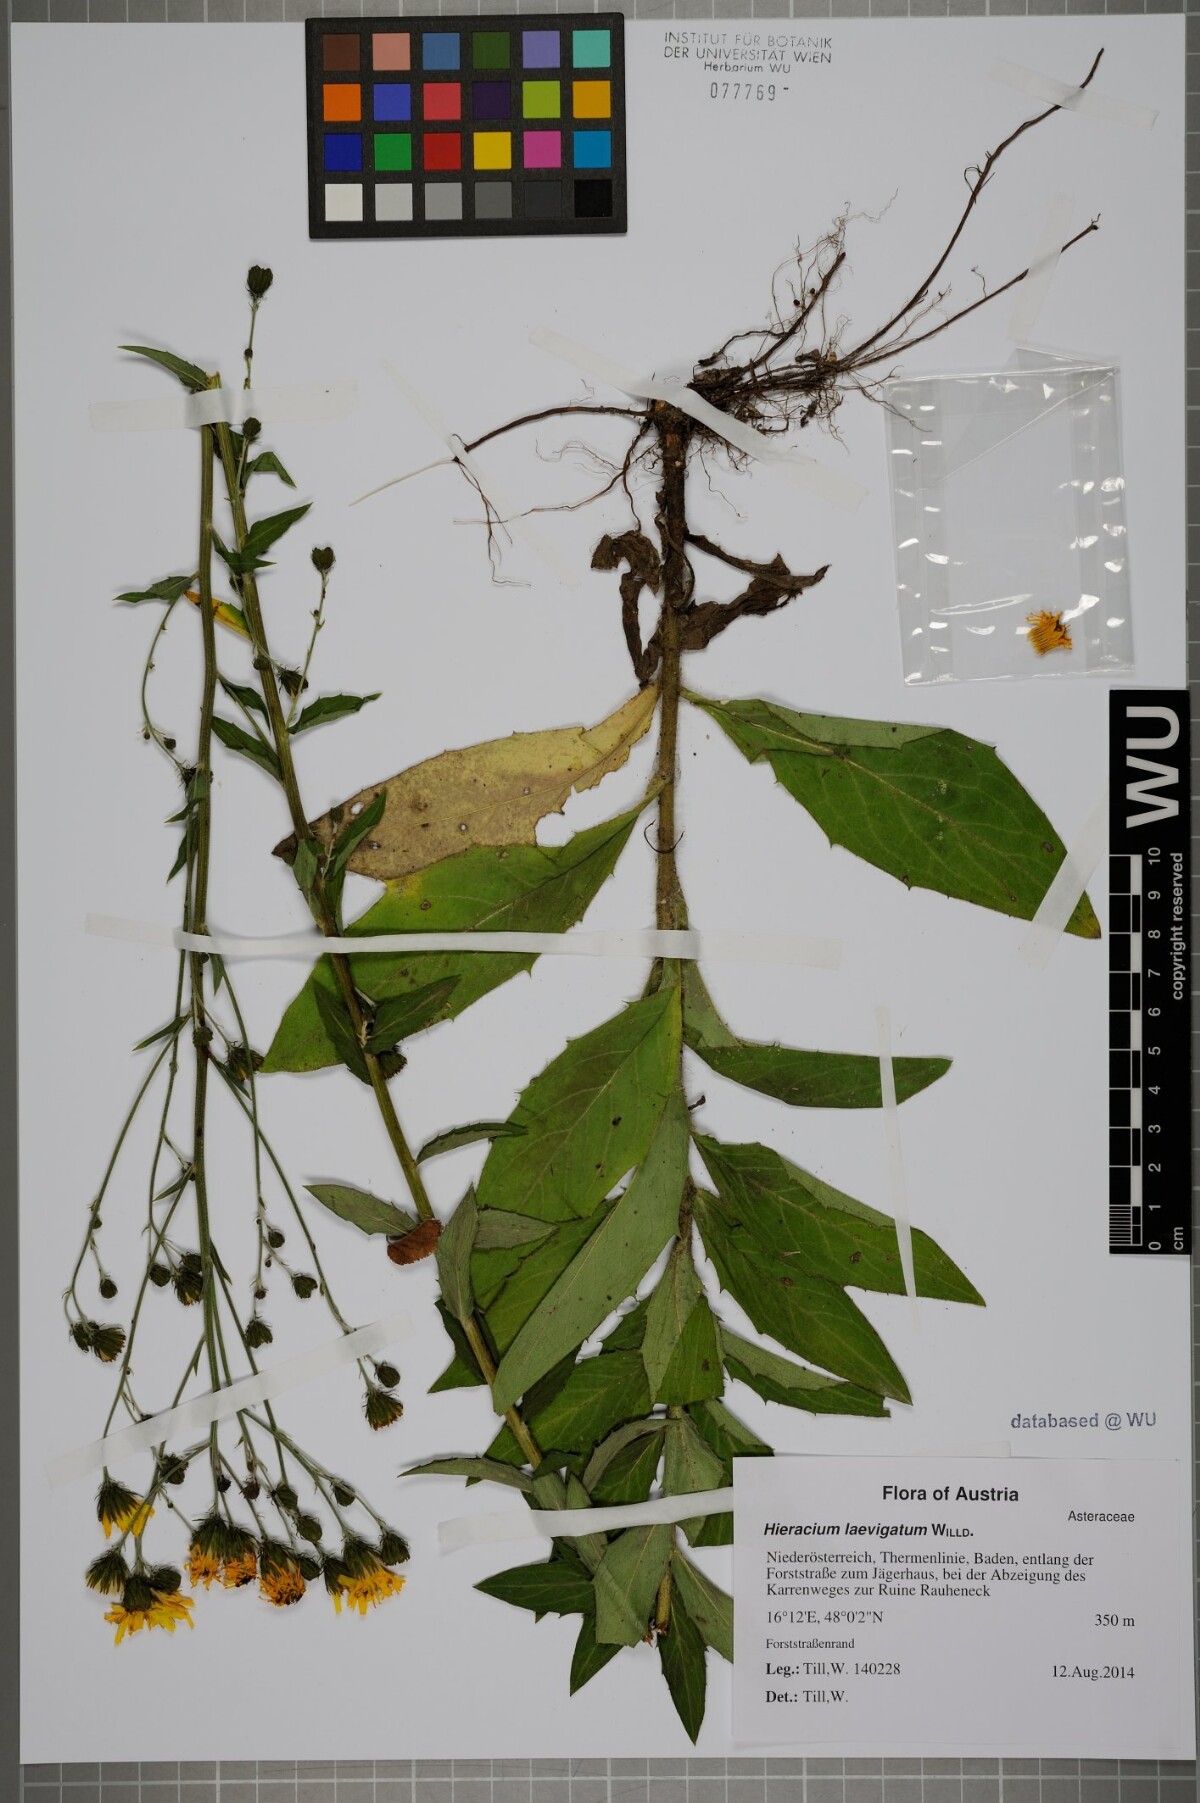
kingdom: Plantae
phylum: Tracheophyta
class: Magnoliopsida
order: Asterales
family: Asteraceae
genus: Hieracium
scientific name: Hieracium sabaudum
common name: New england hawkweed
